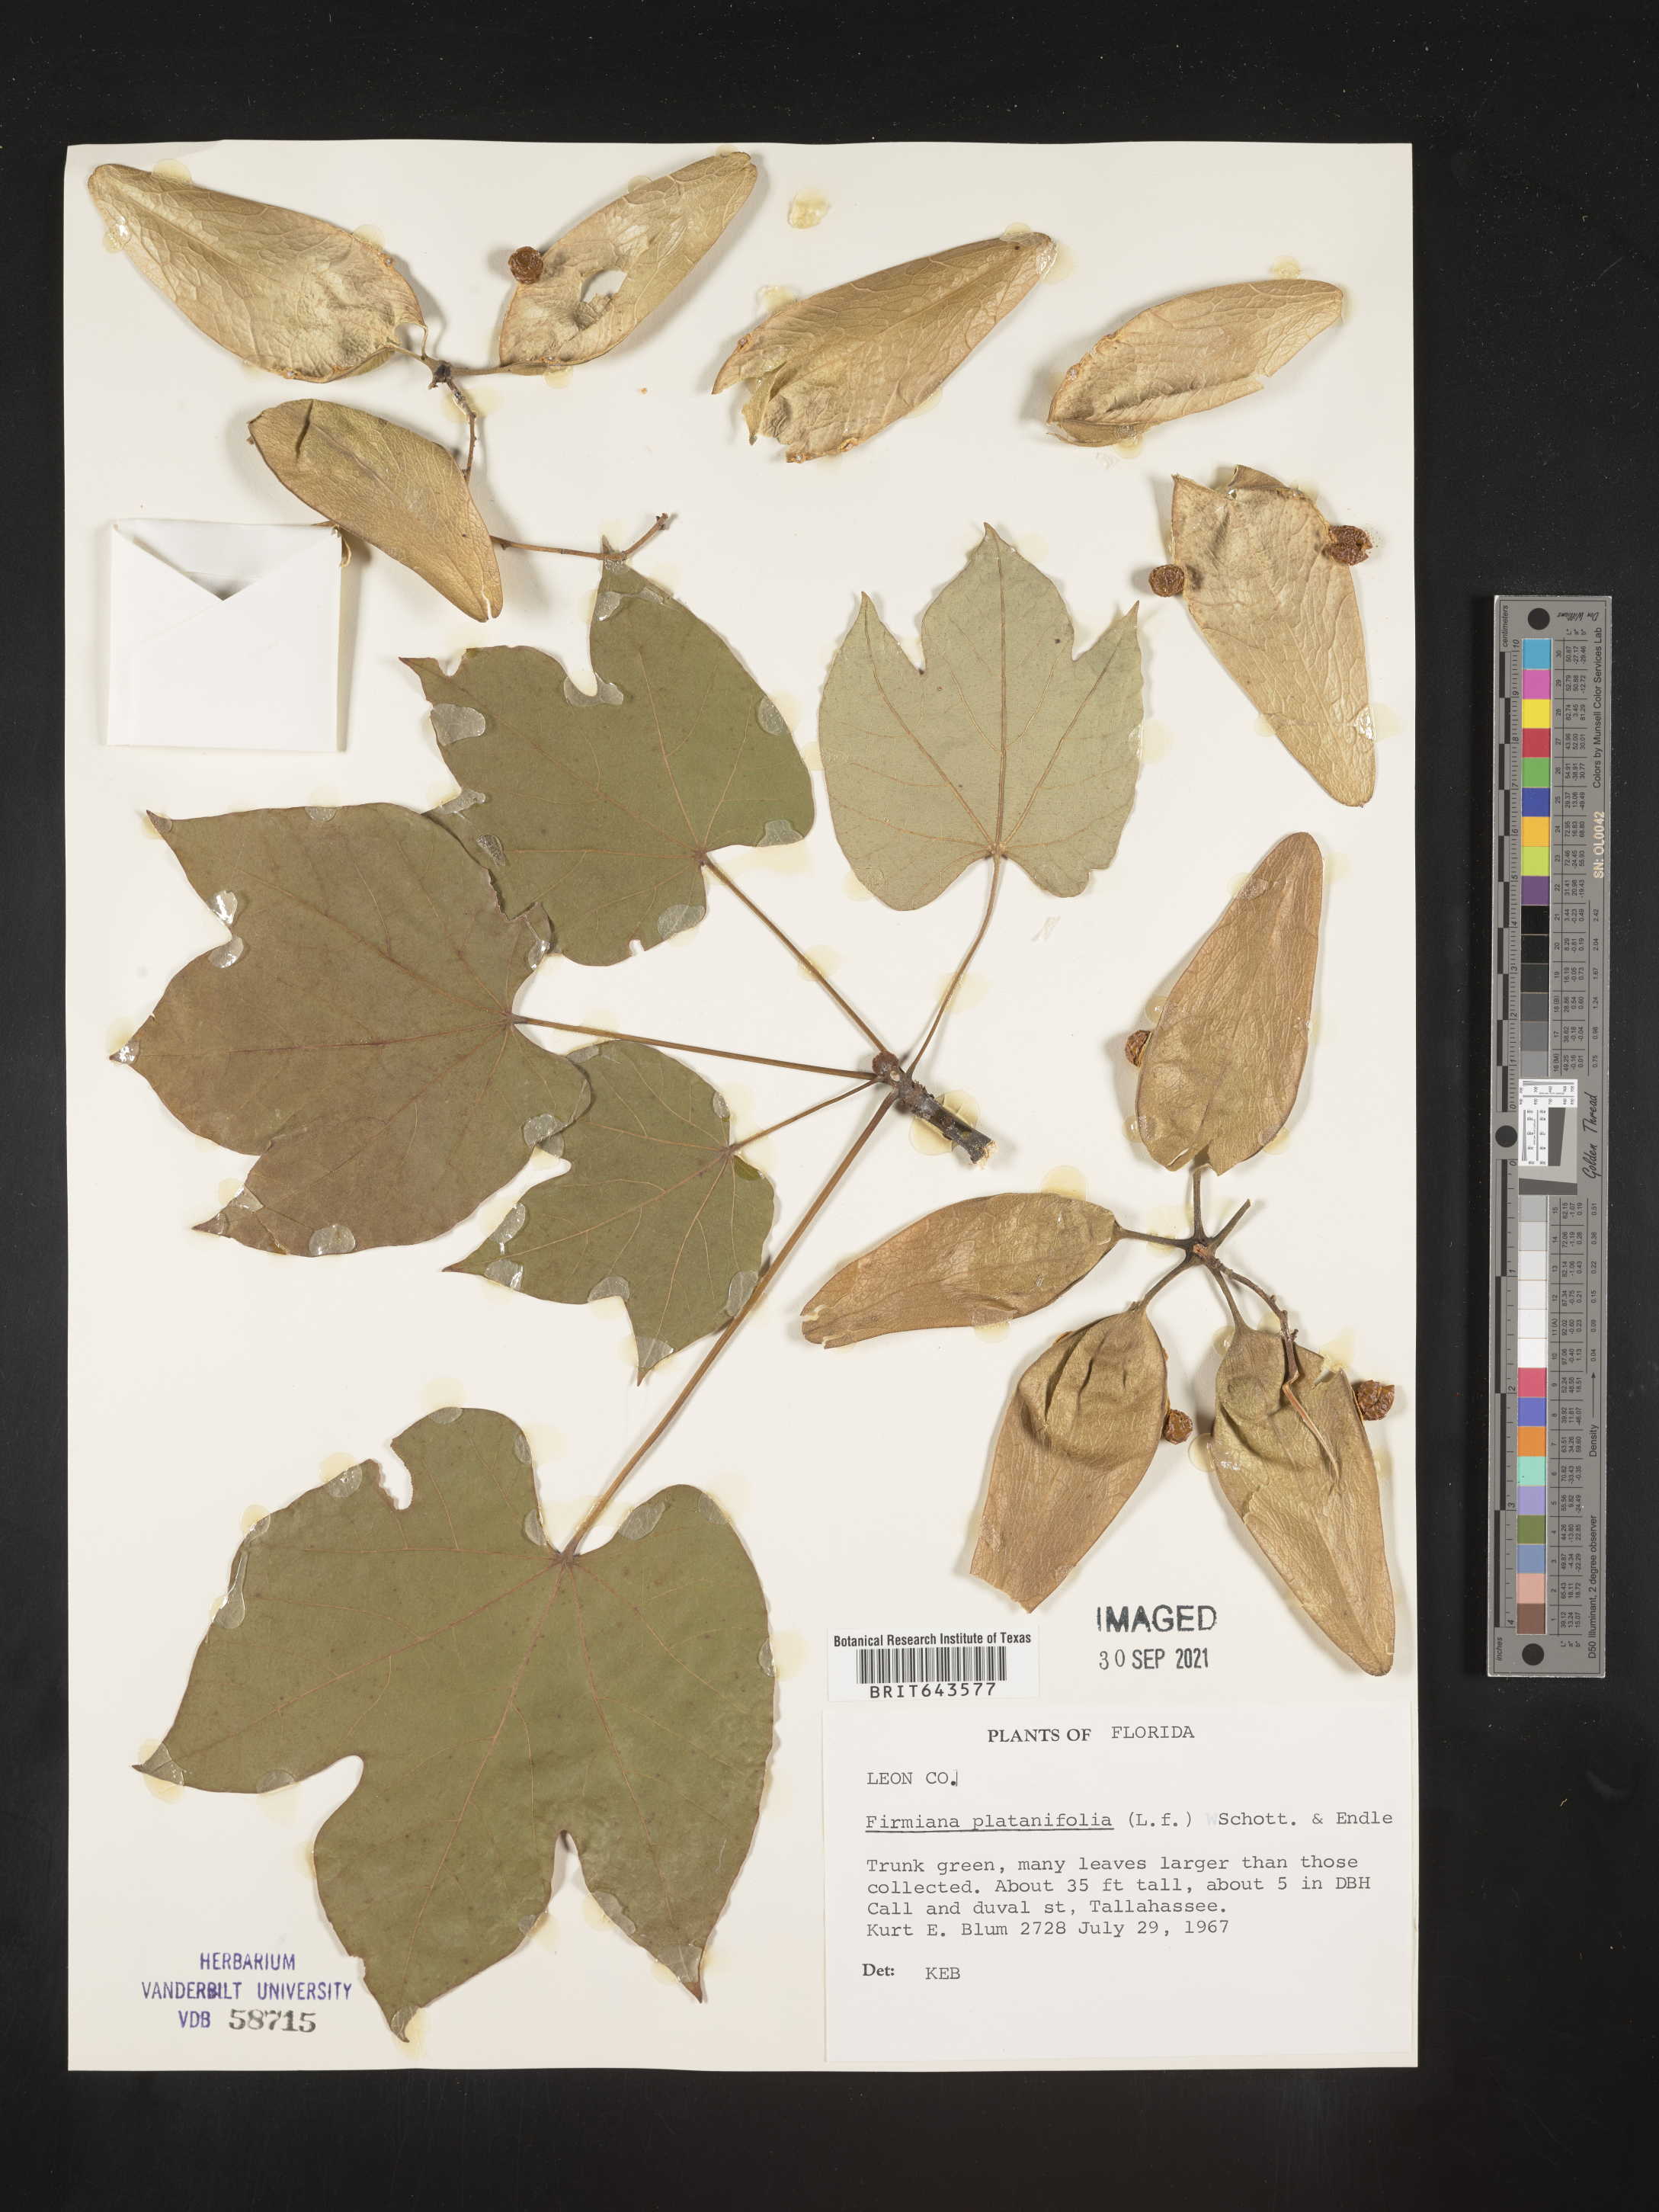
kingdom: Plantae
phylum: Tracheophyta
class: Magnoliopsida
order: Malvales
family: Malvaceae
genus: Firmiana
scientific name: Firmiana
